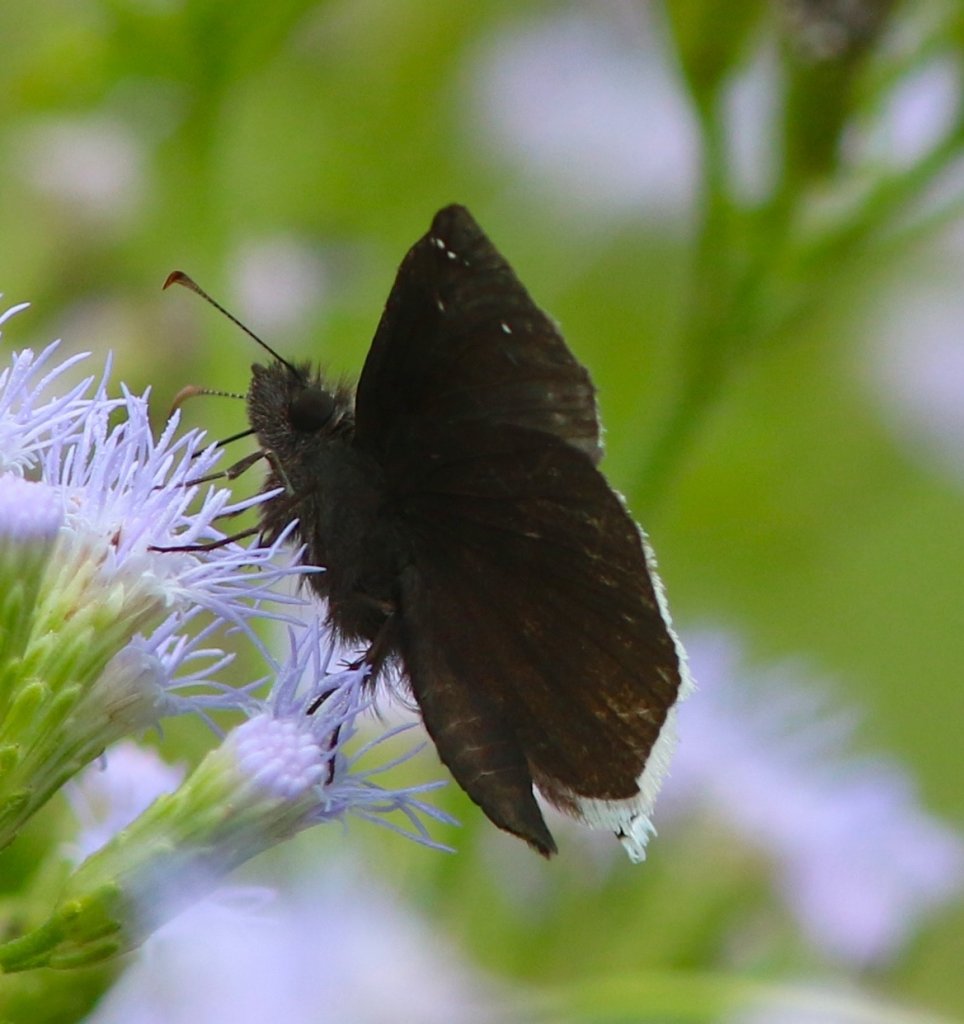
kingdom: Animalia
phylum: Arthropoda
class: Insecta
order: Lepidoptera
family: Hesperiidae
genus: Erynnis
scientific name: Erynnis funeralis
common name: Funereal Duskywing
